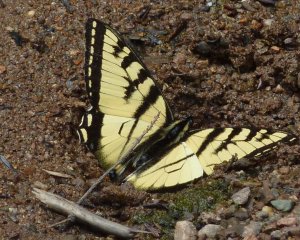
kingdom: Animalia
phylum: Arthropoda
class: Insecta
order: Lepidoptera
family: Papilionidae
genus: Pterourus
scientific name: Pterourus canadensis
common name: Canadian Tiger Swallowtail
